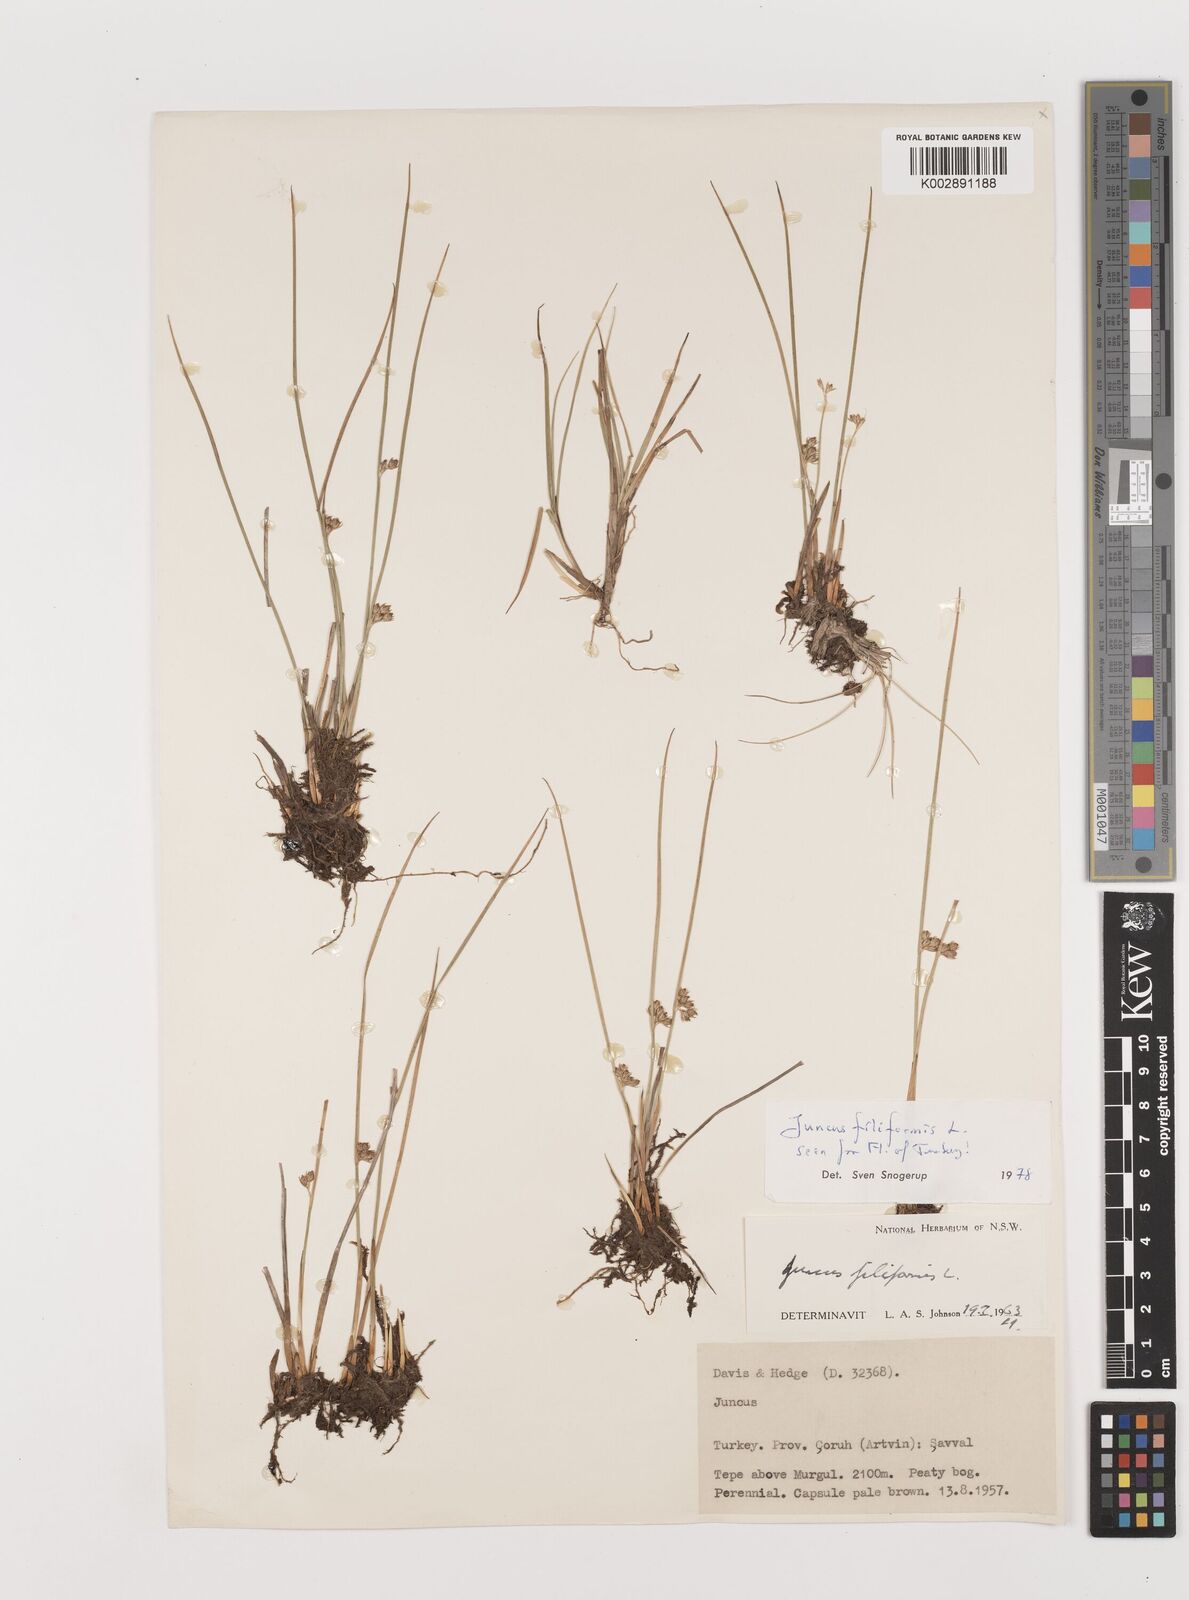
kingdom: Plantae
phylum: Tracheophyta
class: Liliopsida
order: Poales
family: Juncaceae
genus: Juncus
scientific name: Juncus filiformis
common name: Thread rush
